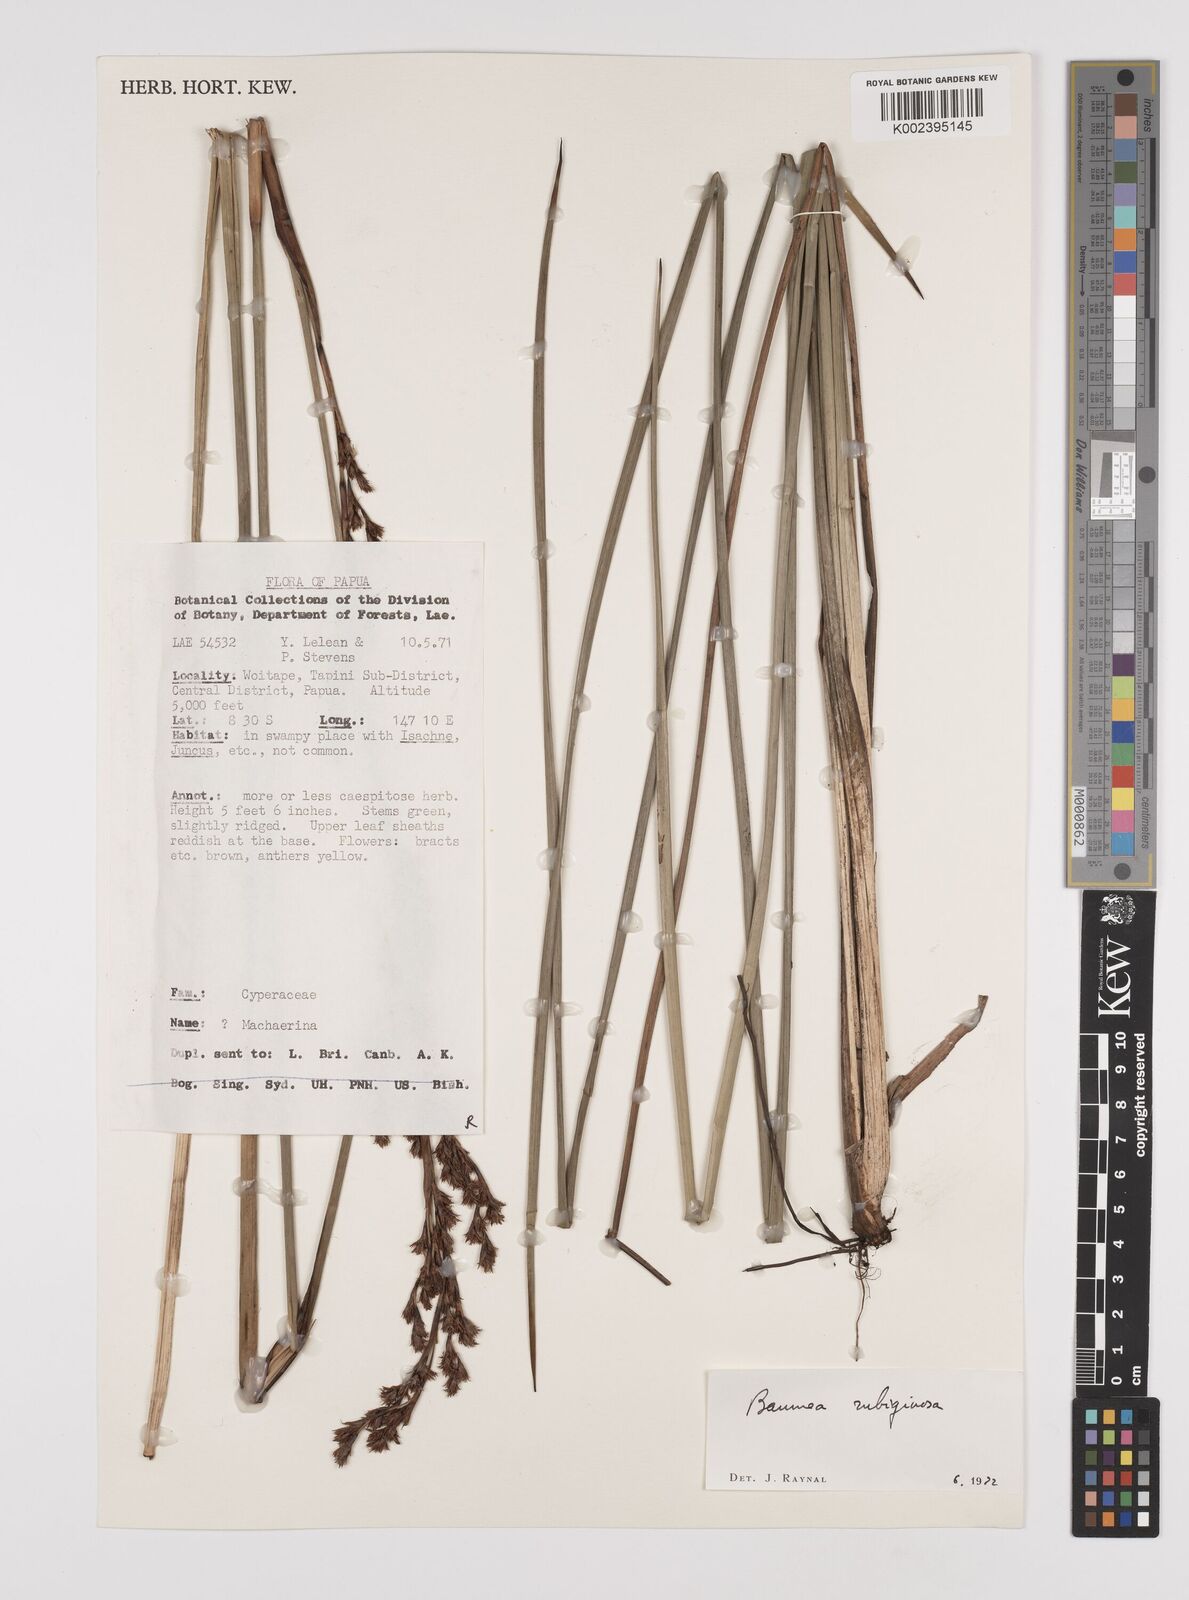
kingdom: Plantae
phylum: Tracheophyta
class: Liliopsida
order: Poales
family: Cyperaceae
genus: Machaerina
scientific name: Machaerina rubiginosa
